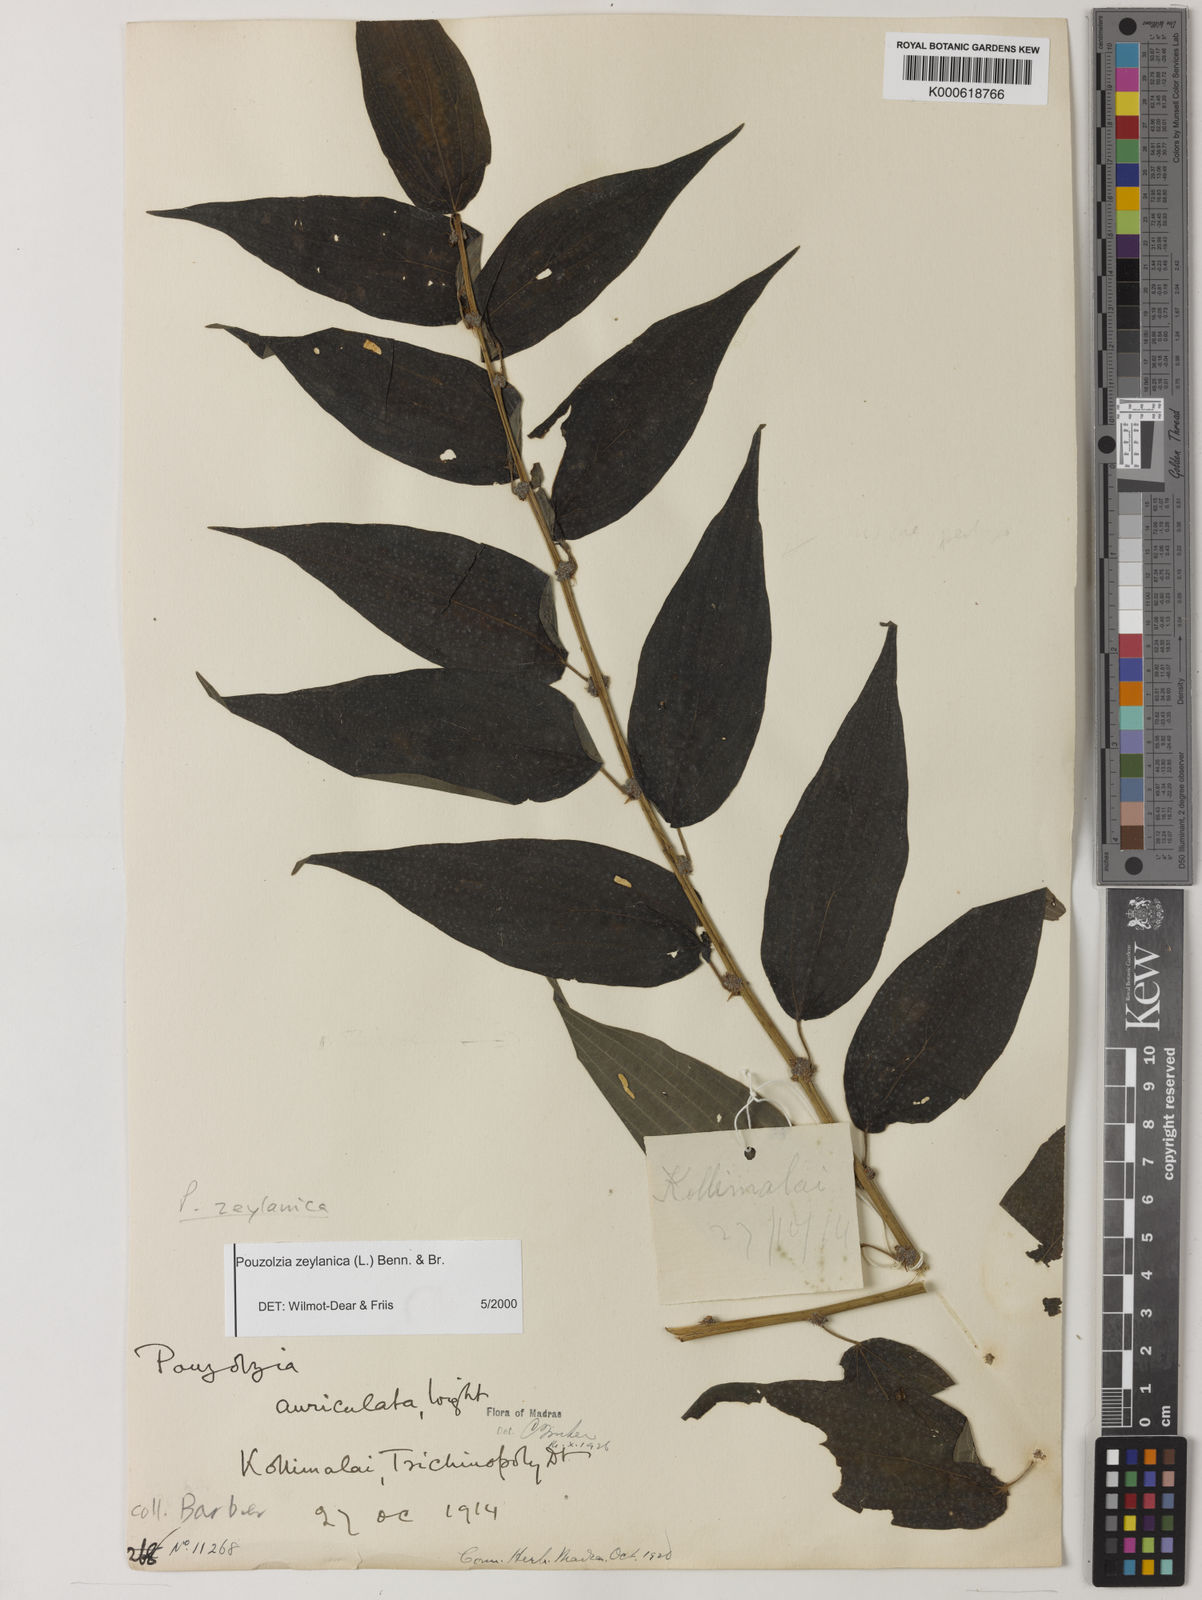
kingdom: Plantae
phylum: Tracheophyta
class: Magnoliopsida
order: Rosales
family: Urticaceae
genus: Pouzolzia
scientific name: Pouzolzia zeylanica
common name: Graceful pouzolzsbush
